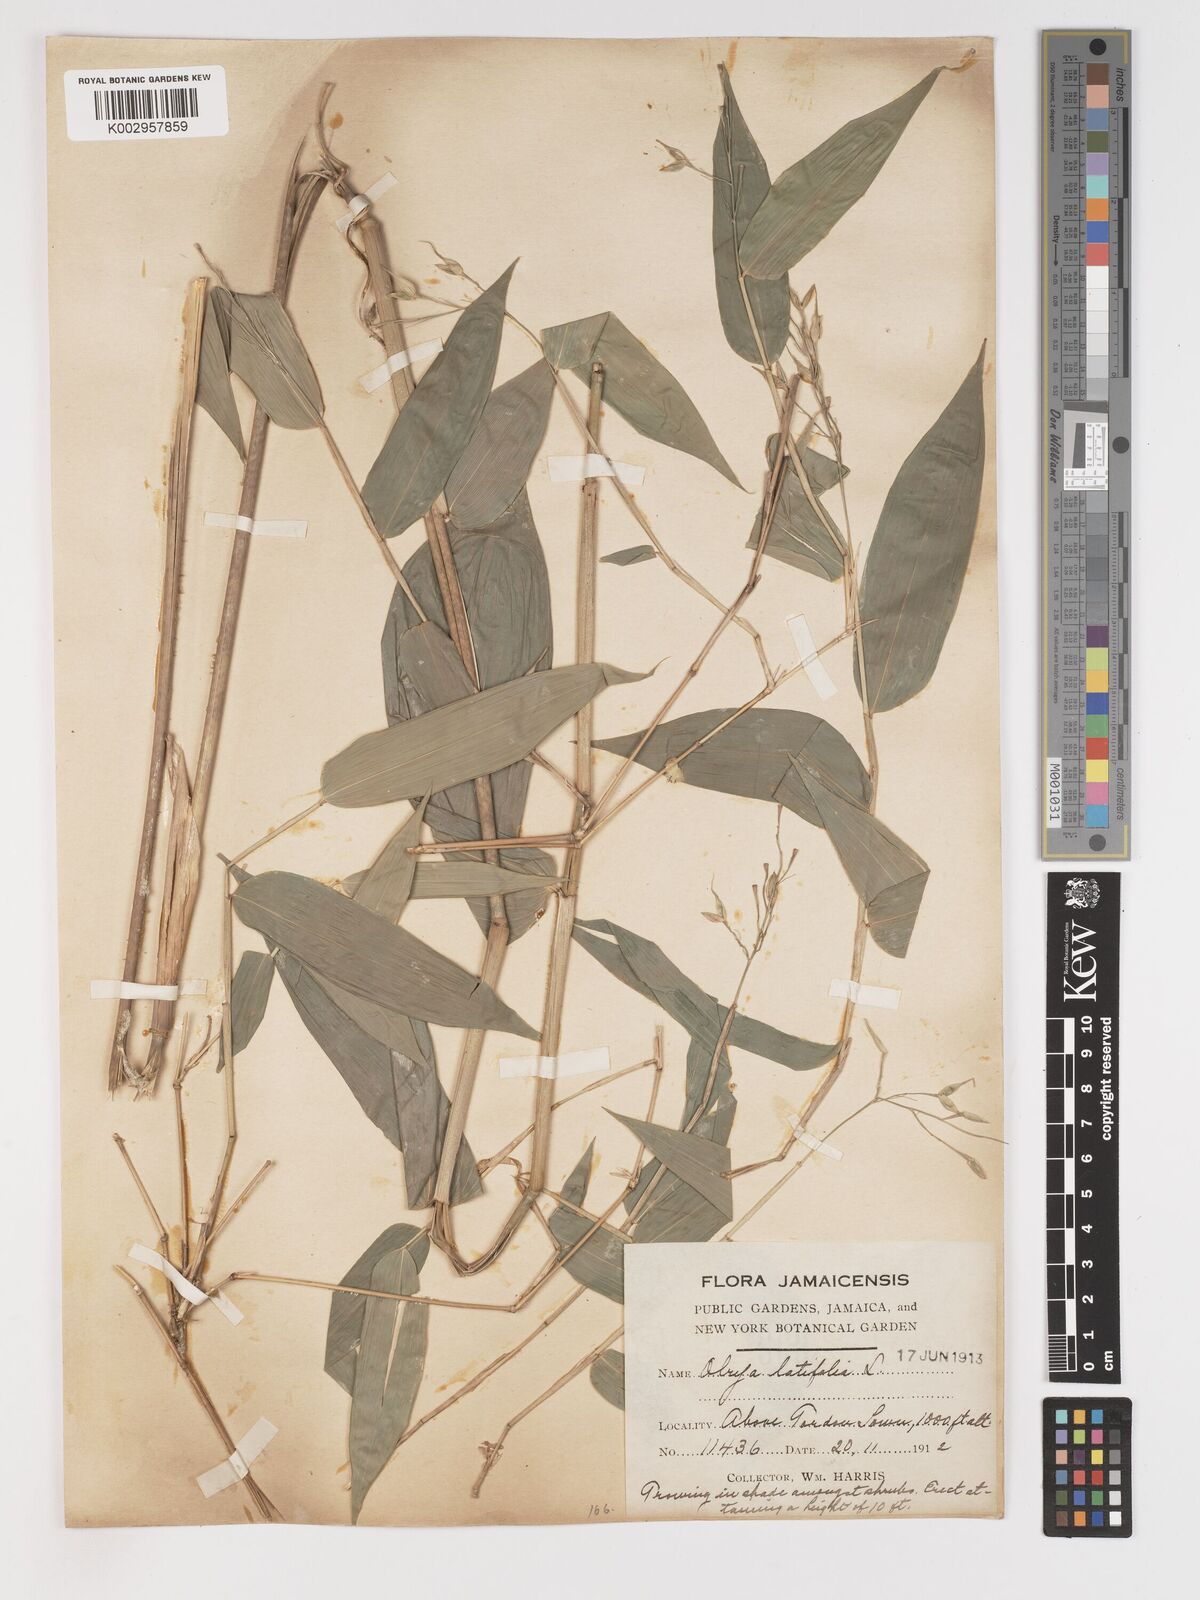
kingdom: Plantae
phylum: Tracheophyta
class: Liliopsida
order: Poales
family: Poaceae
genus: Olyra
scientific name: Olyra latifolia
